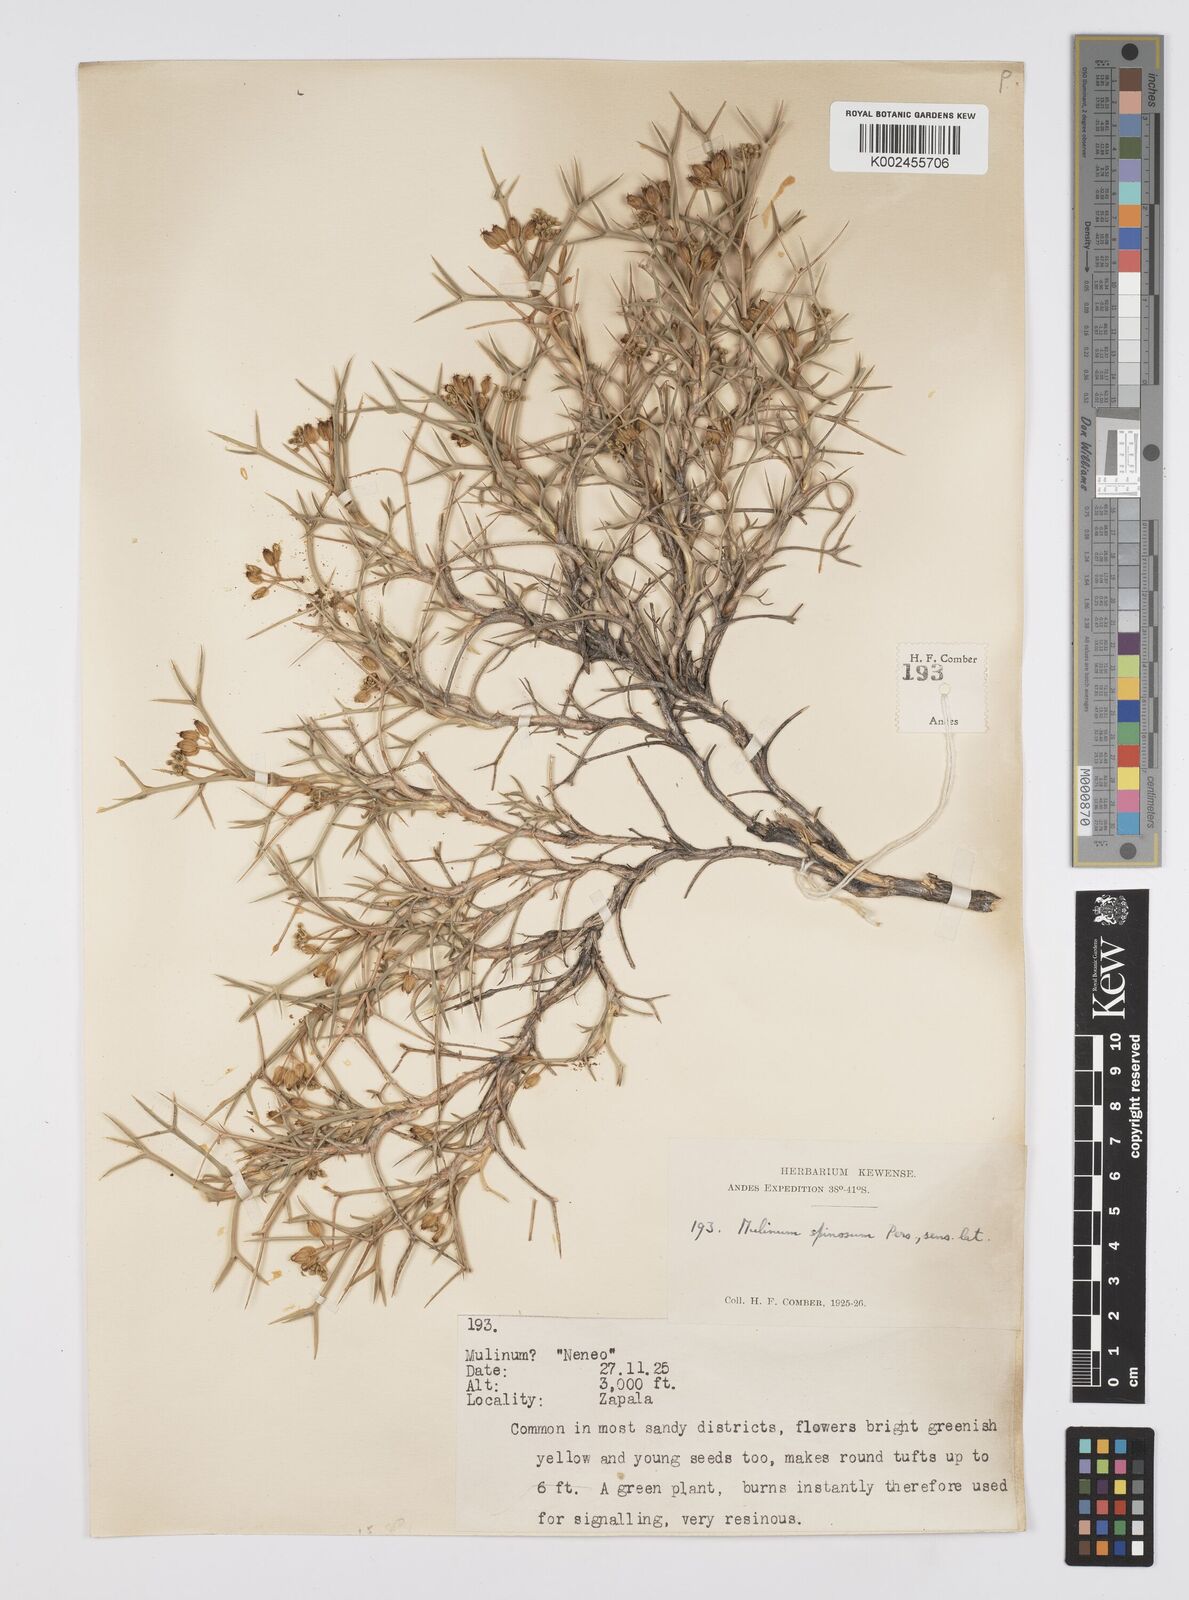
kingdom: Plantae
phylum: Tracheophyta
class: Magnoliopsida
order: Apiales
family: Apiaceae
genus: Azorella
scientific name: Azorella prolifera
